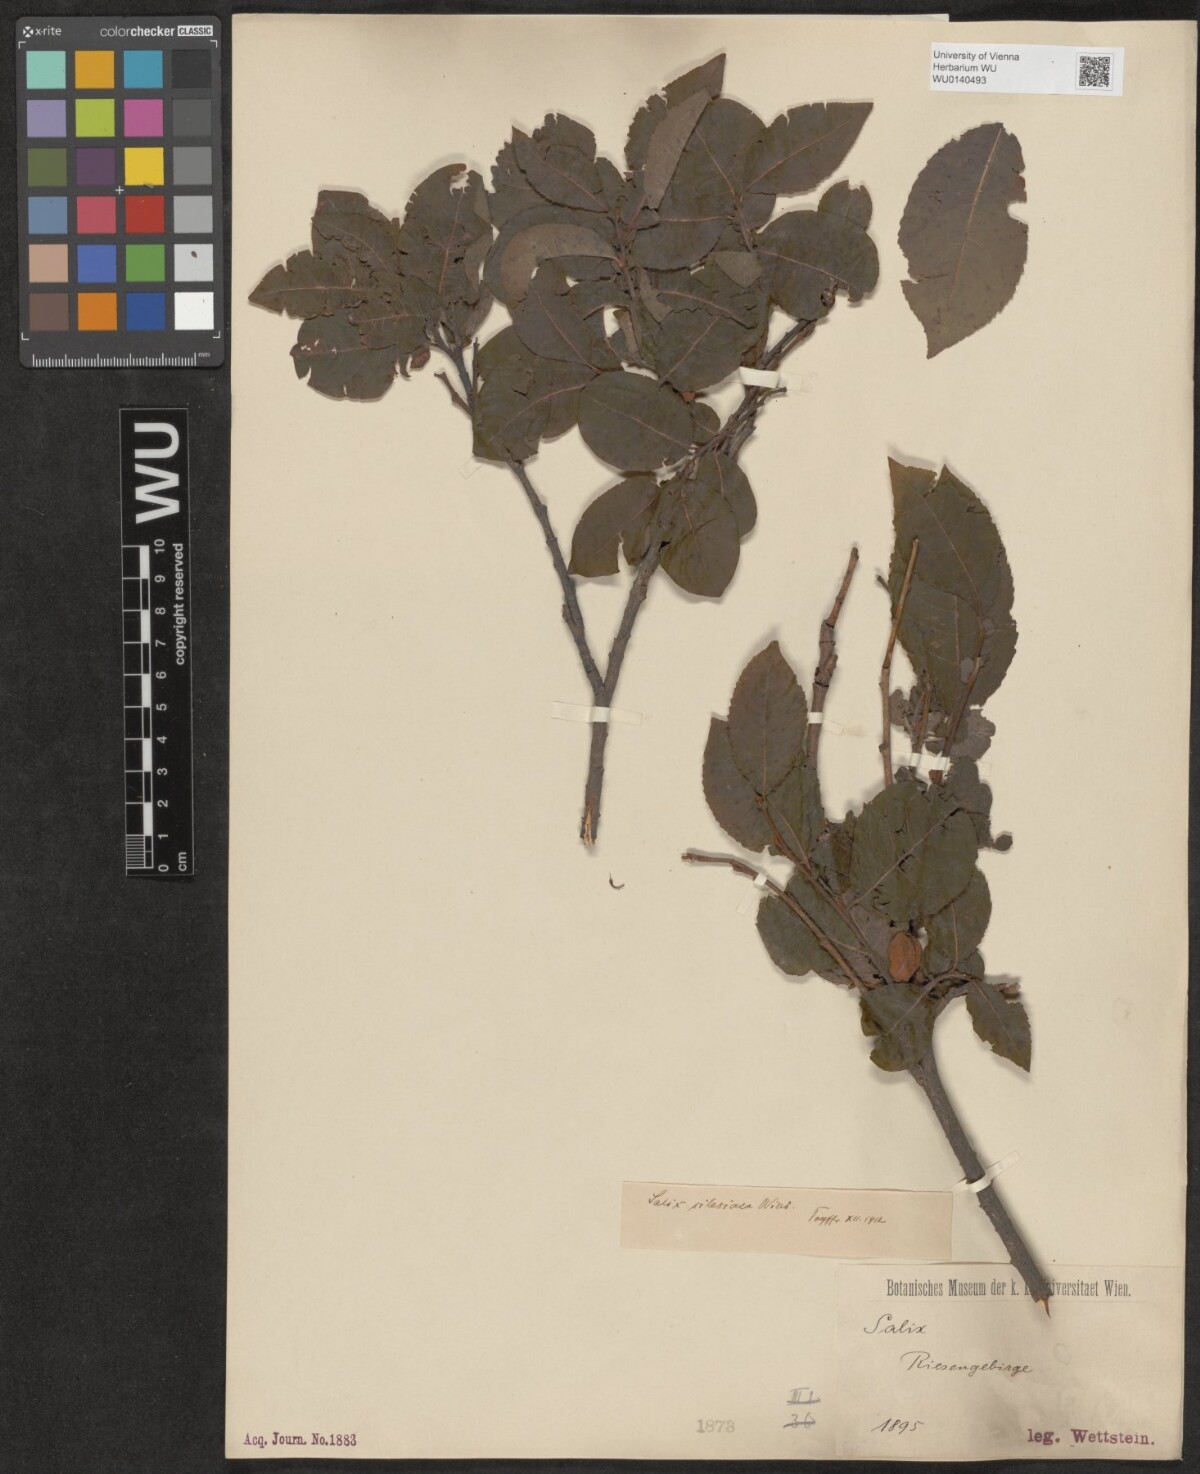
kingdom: Plantae
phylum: Tracheophyta
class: Magnoliopsida
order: Malpighiales
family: Salicaceae
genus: Salix
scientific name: Salix silesiaca
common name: Silesian willow
